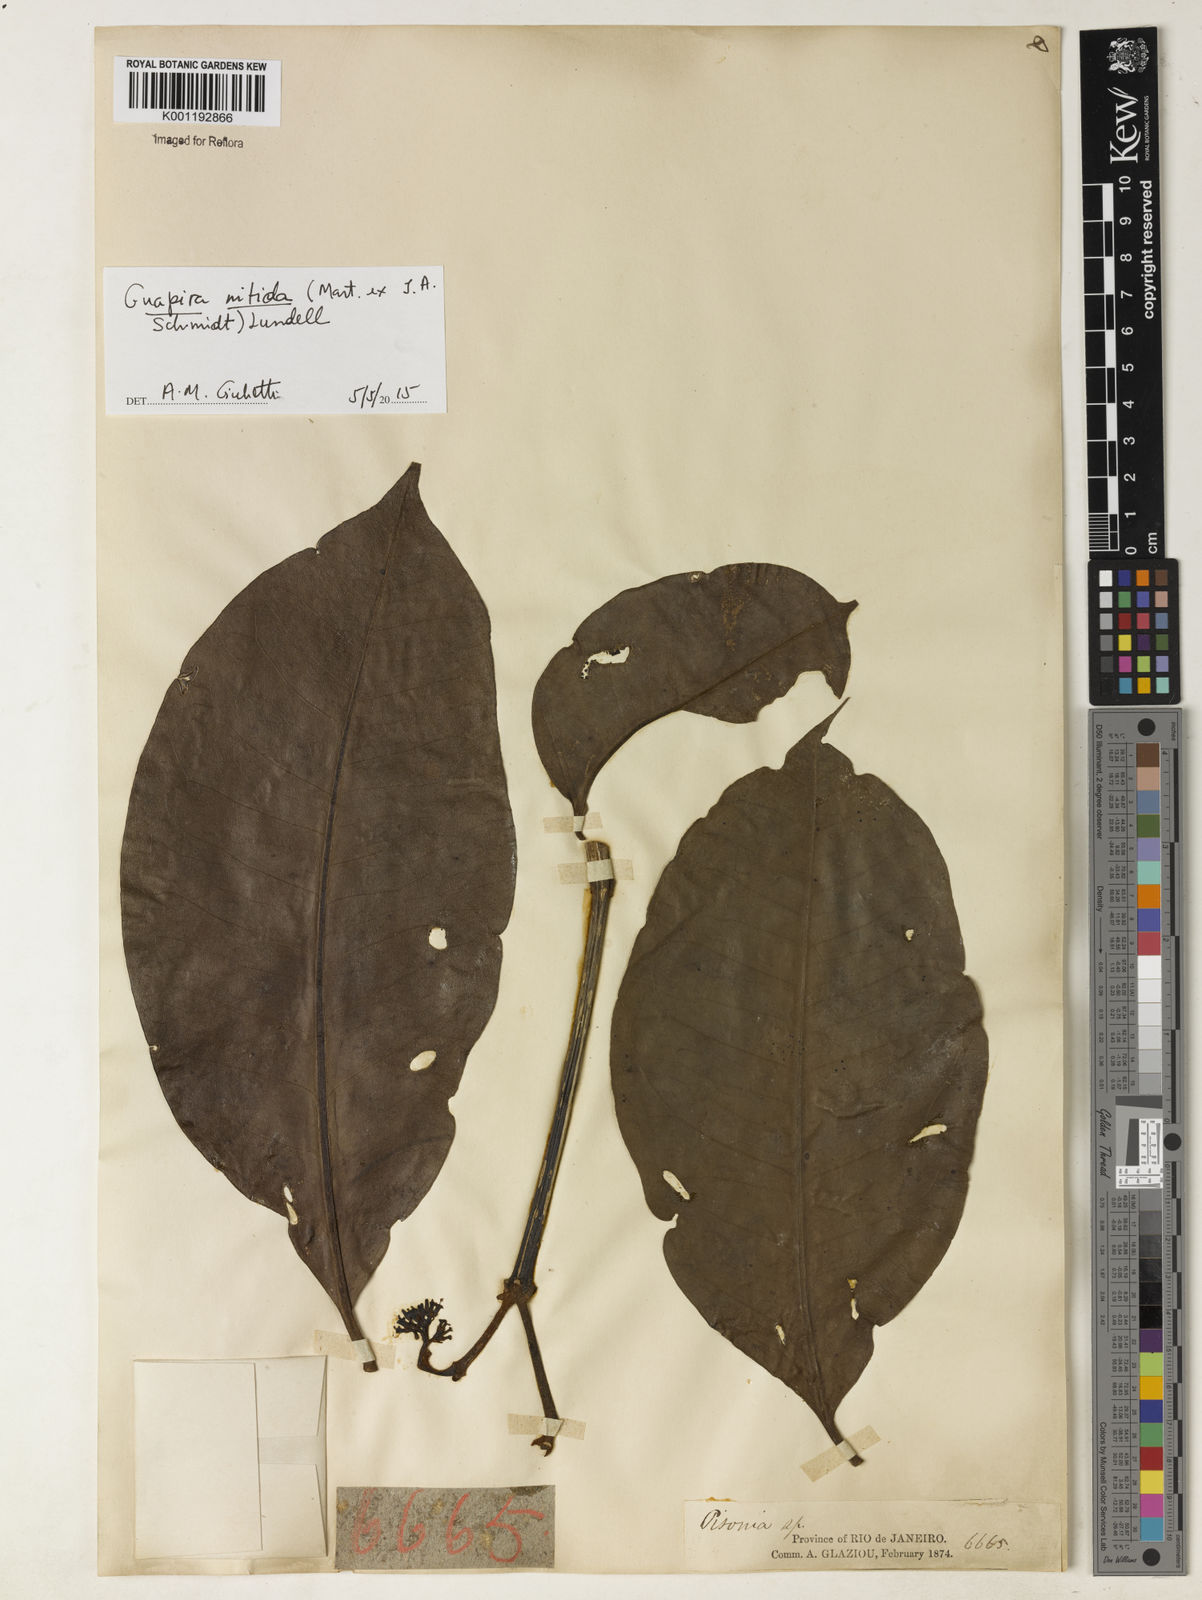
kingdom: Plantae
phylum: Tracheophyta
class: Magnoliopsida
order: Caryophyllales
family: Nyctaginaceae
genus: Guapira
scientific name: Guapira nitida
